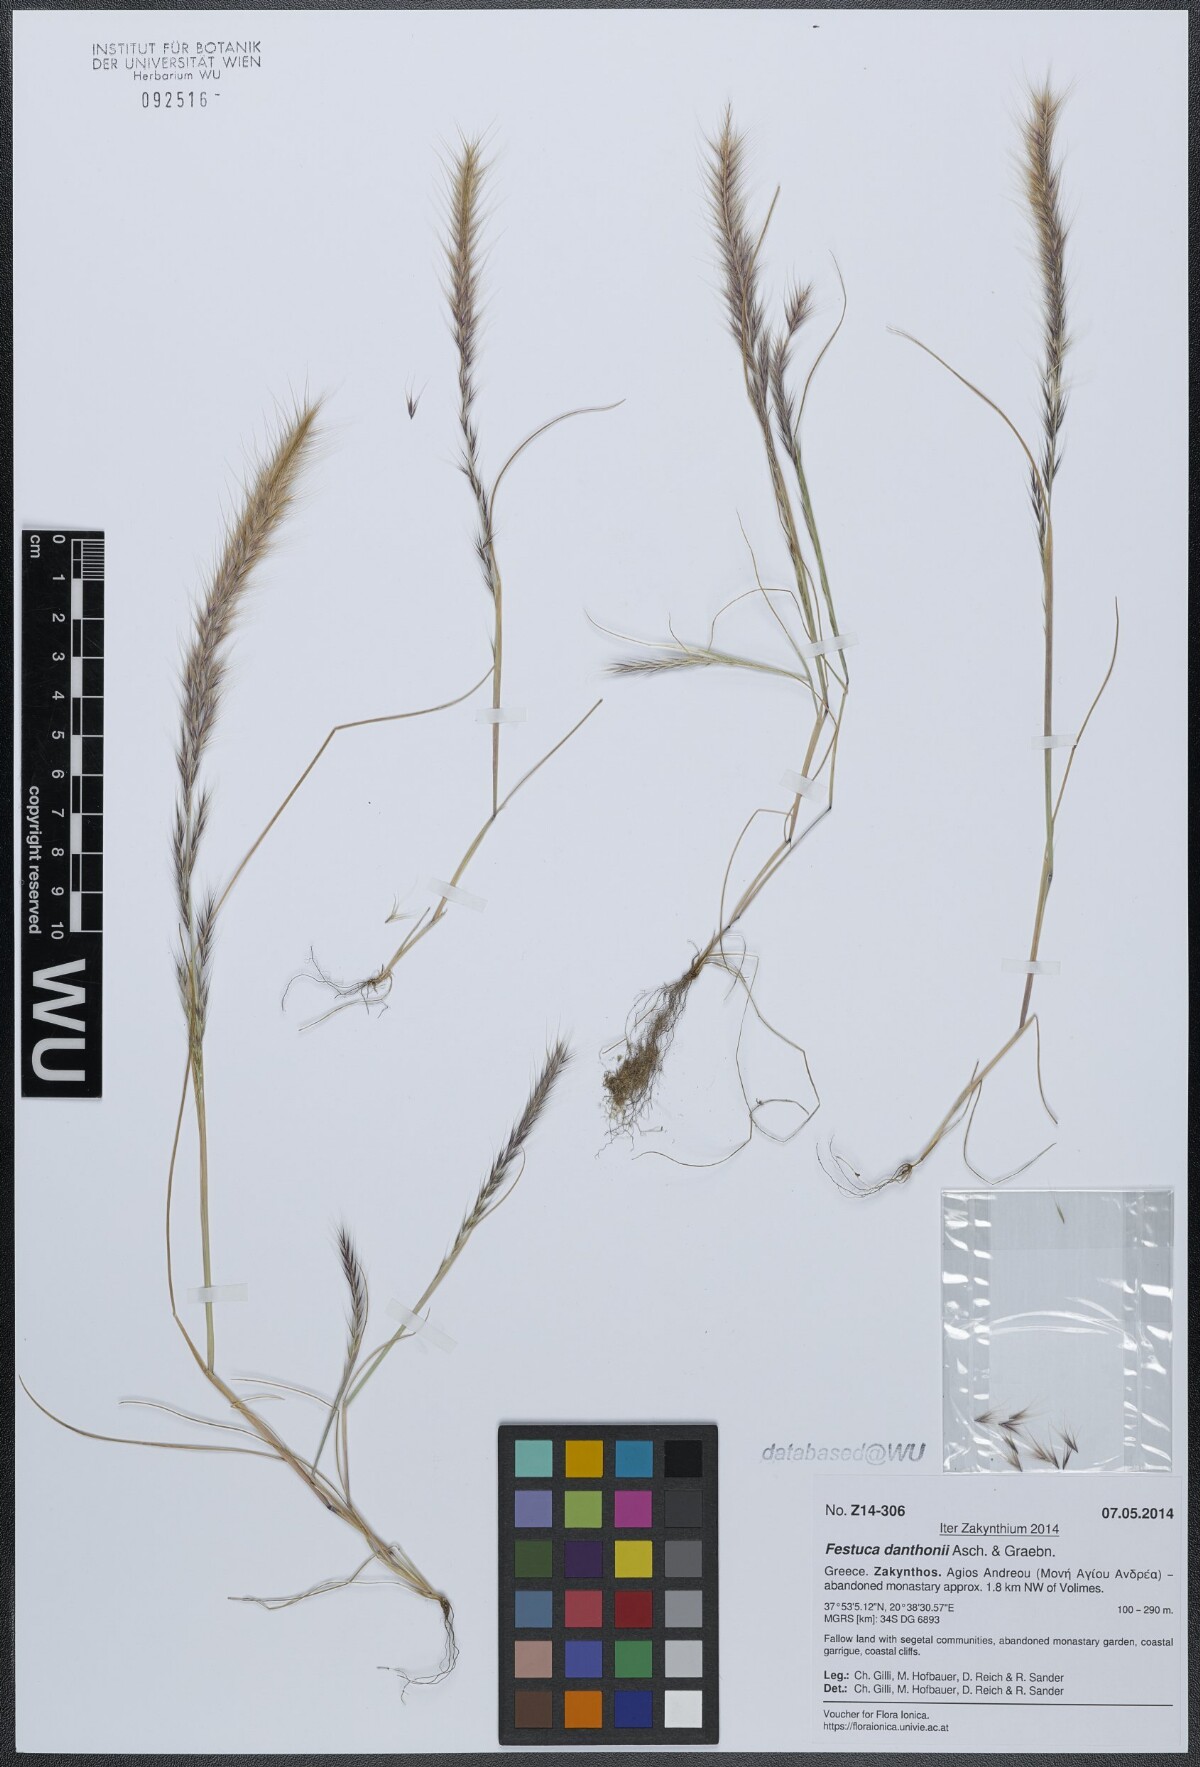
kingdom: Plantae
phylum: Tracheophyta
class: Liliopsida
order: Poales
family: Poaceae
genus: Festuca
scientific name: Festuca ambigua
